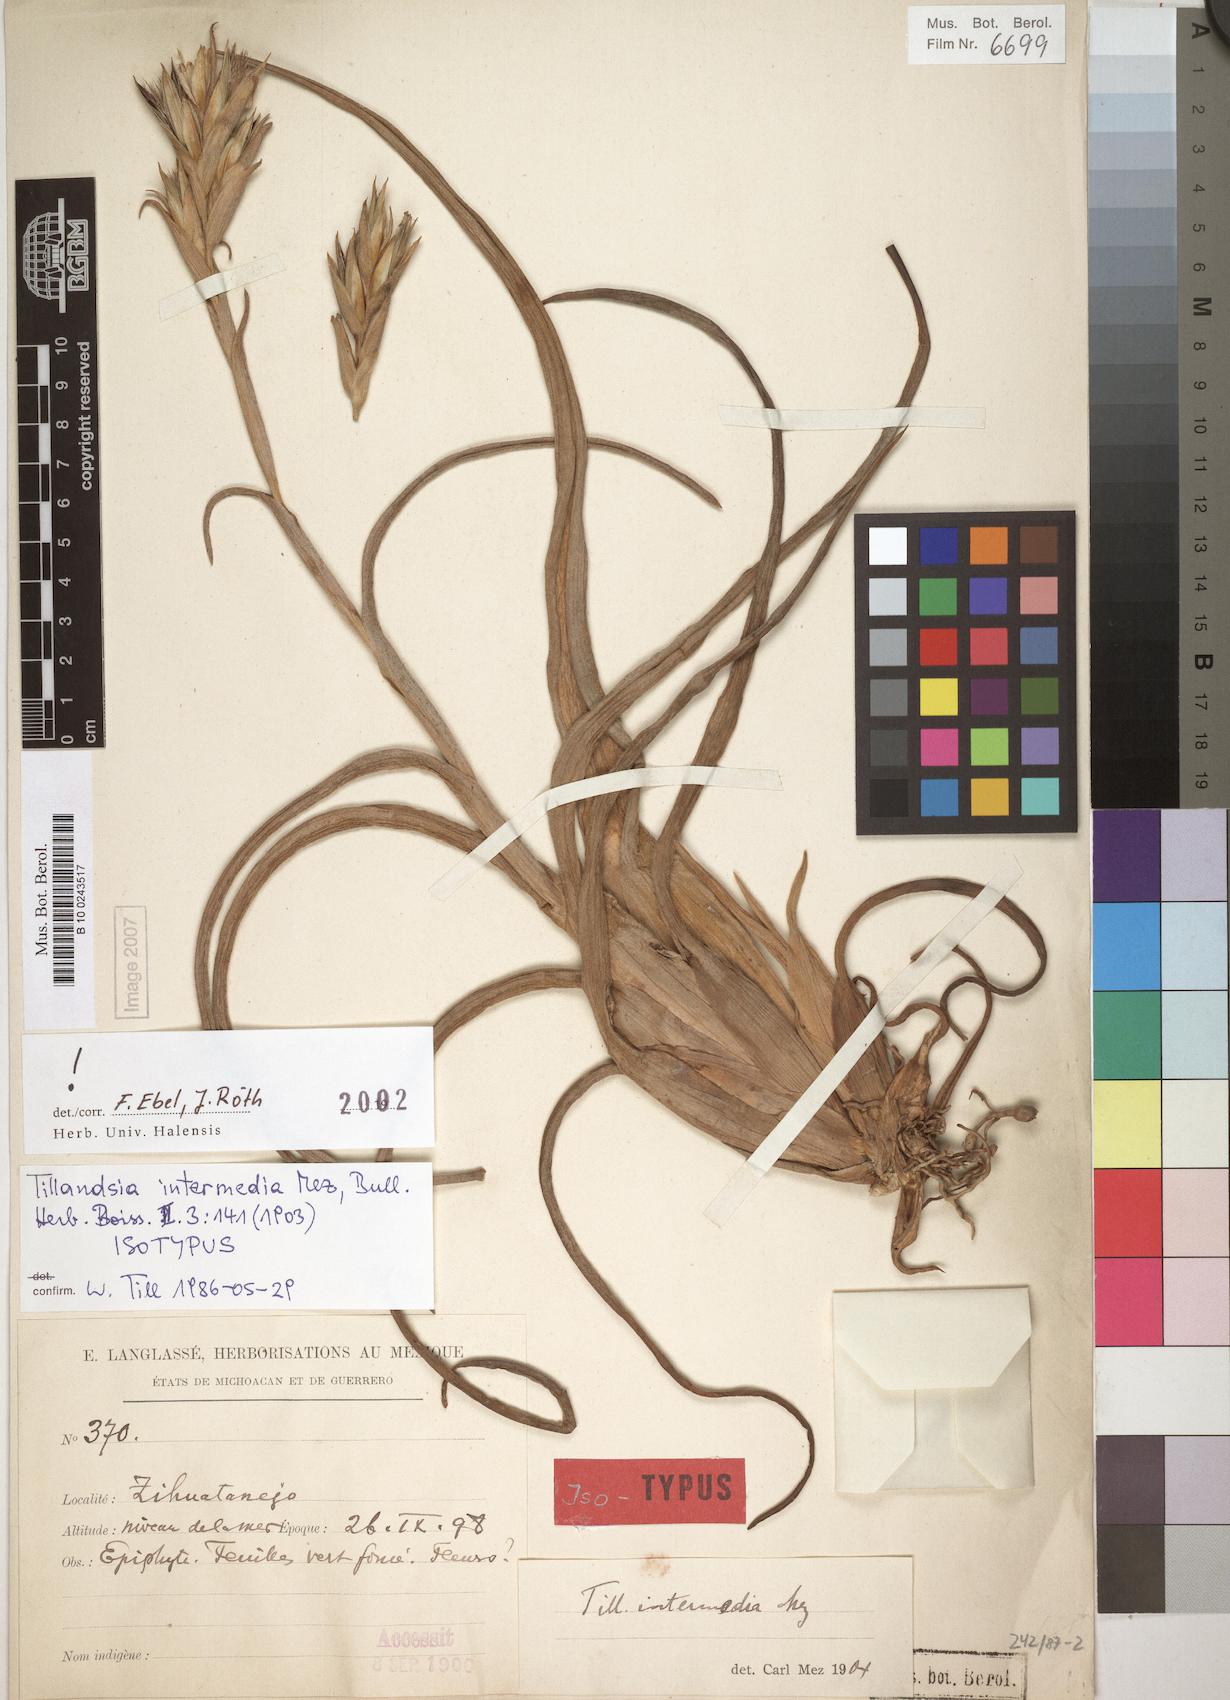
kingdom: Plantae
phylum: Tracheophyta
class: Liliopsida
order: Poales
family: Bromeliaceae
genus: Tillandsia
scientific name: Tillandsia intermedia
